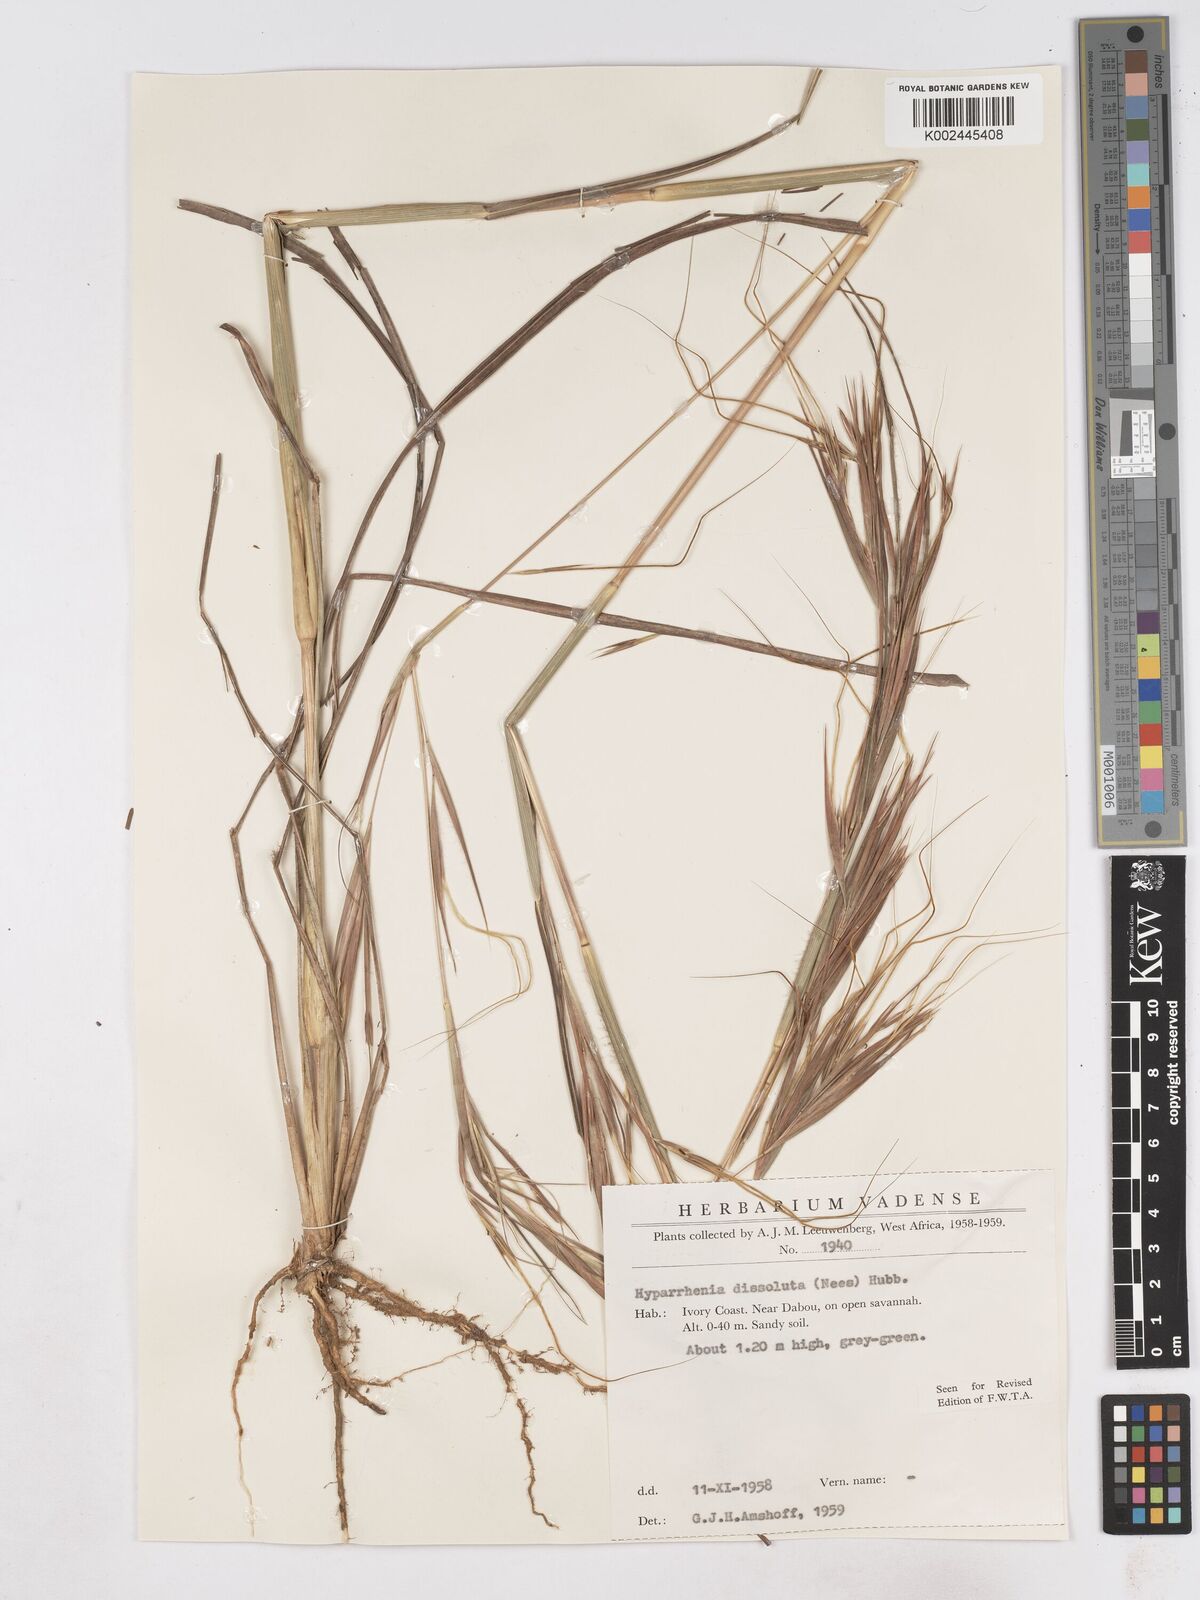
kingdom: Plantae
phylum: Tracheophyta
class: Liliopsida
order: Poales
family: Poaceae
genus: Hyperthelia
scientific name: Hyperthelia dissoluta
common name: Yellow thatching grass
